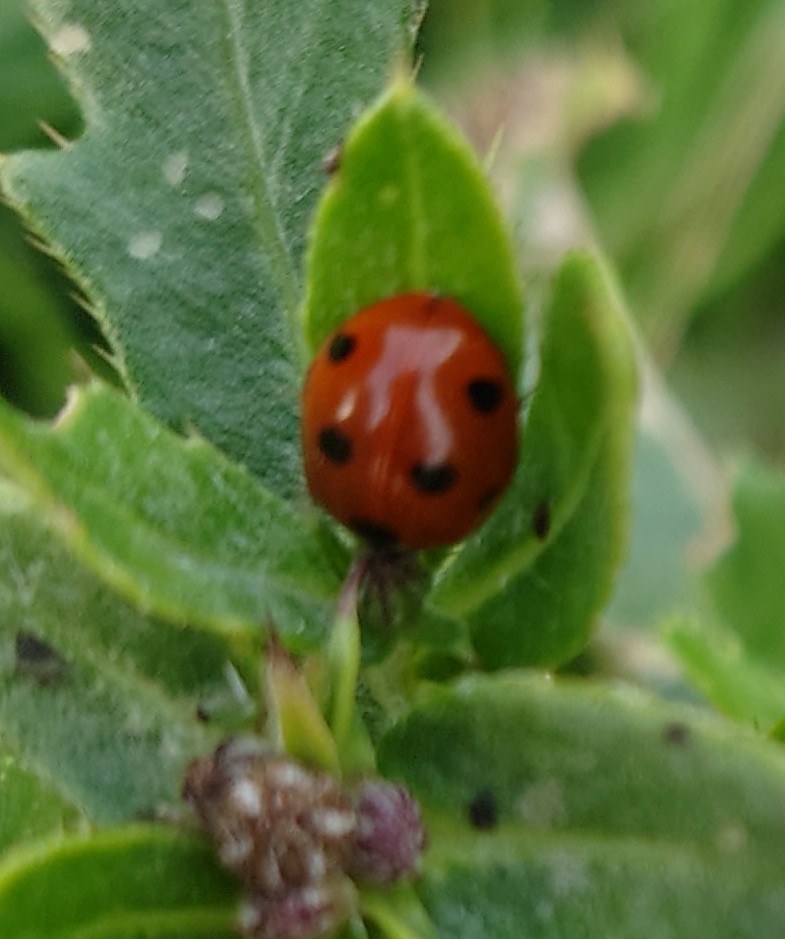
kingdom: Animalia
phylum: Arthropoda
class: Insecta
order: Coleoptera
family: Coccinellidae
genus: Coccinella
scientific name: Coccinella septempunctata
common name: Syvplettet mariehøne
